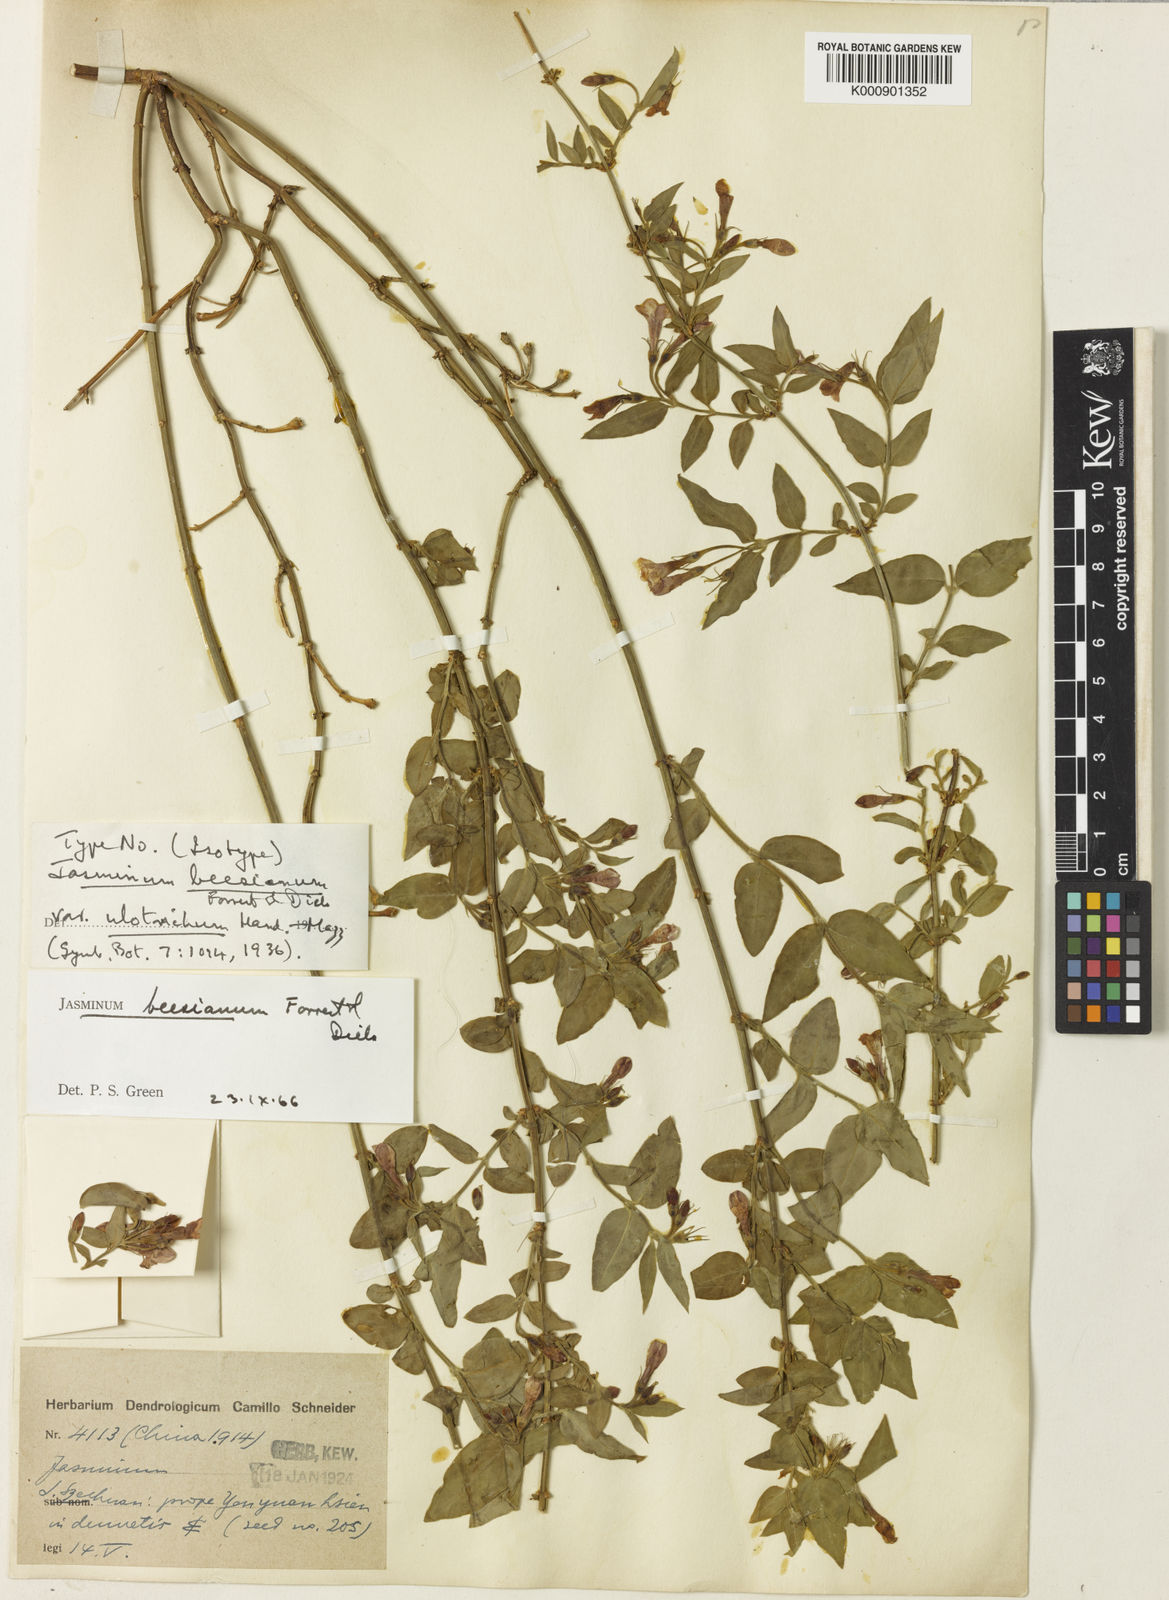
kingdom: Plantae
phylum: Tracheophyta
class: Magnoliopsida
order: Lamiales
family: Oleaceae
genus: Jasminum
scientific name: Jasminum beesianum
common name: Red jasmine
